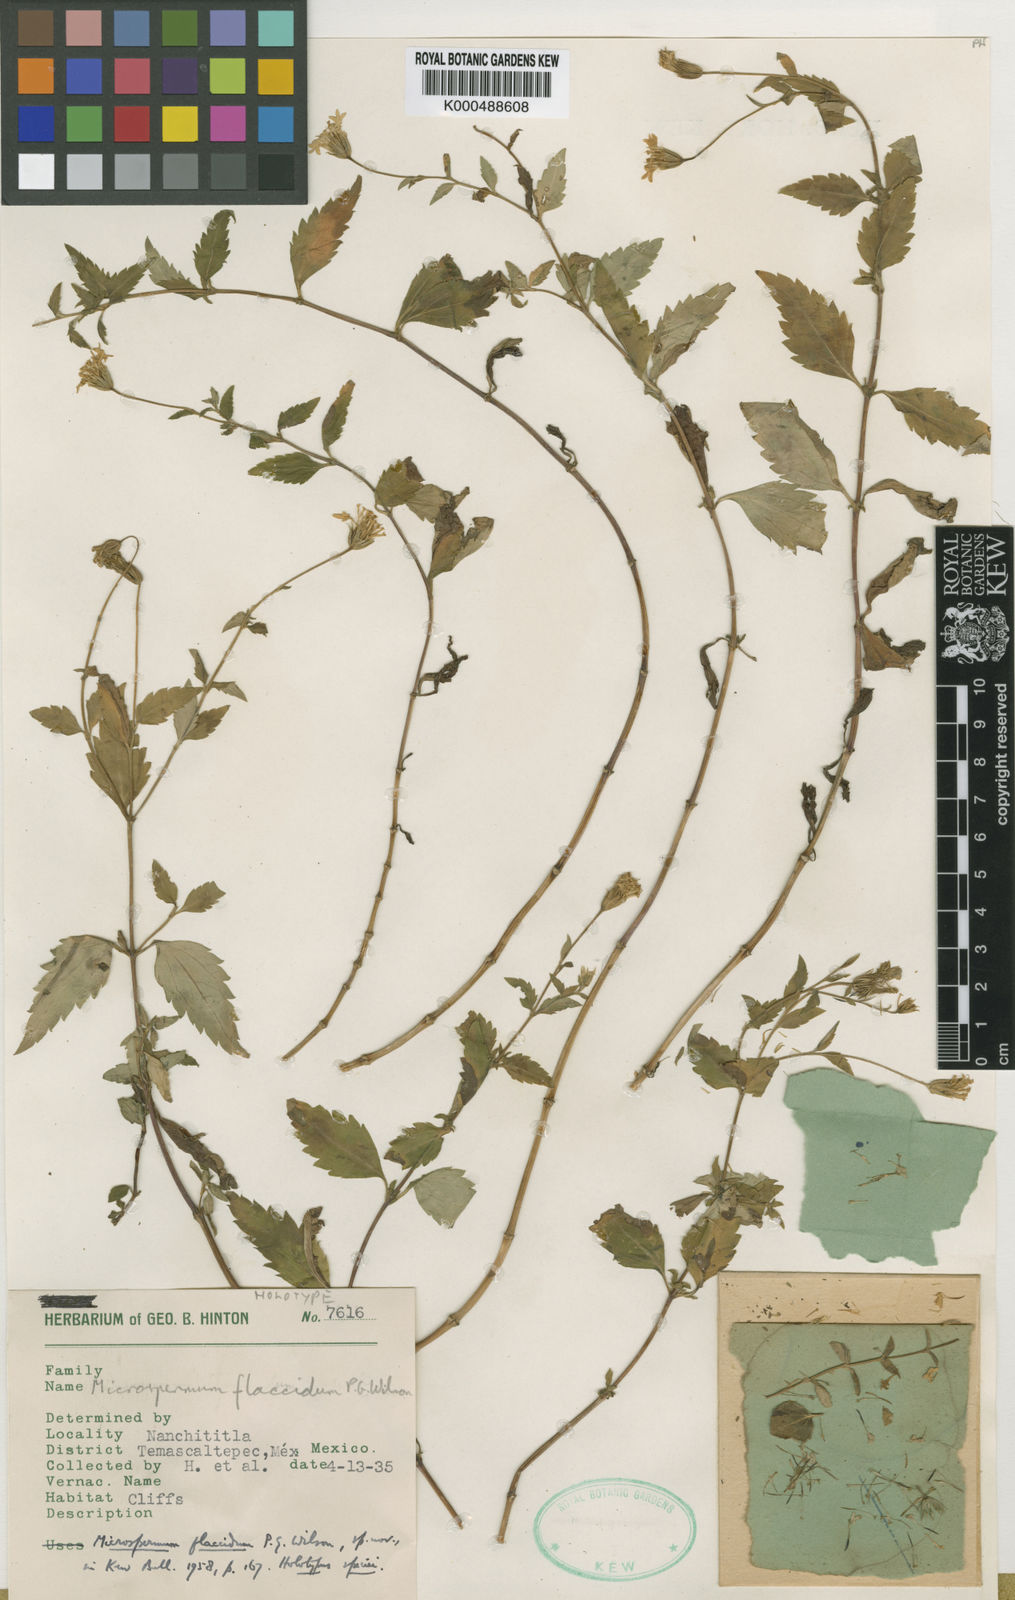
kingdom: Plantae
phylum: Tracheophyta
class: Magnoliopsida
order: Asterales
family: Asteraceae
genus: Microspermum
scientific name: Microspermum flaccidum
